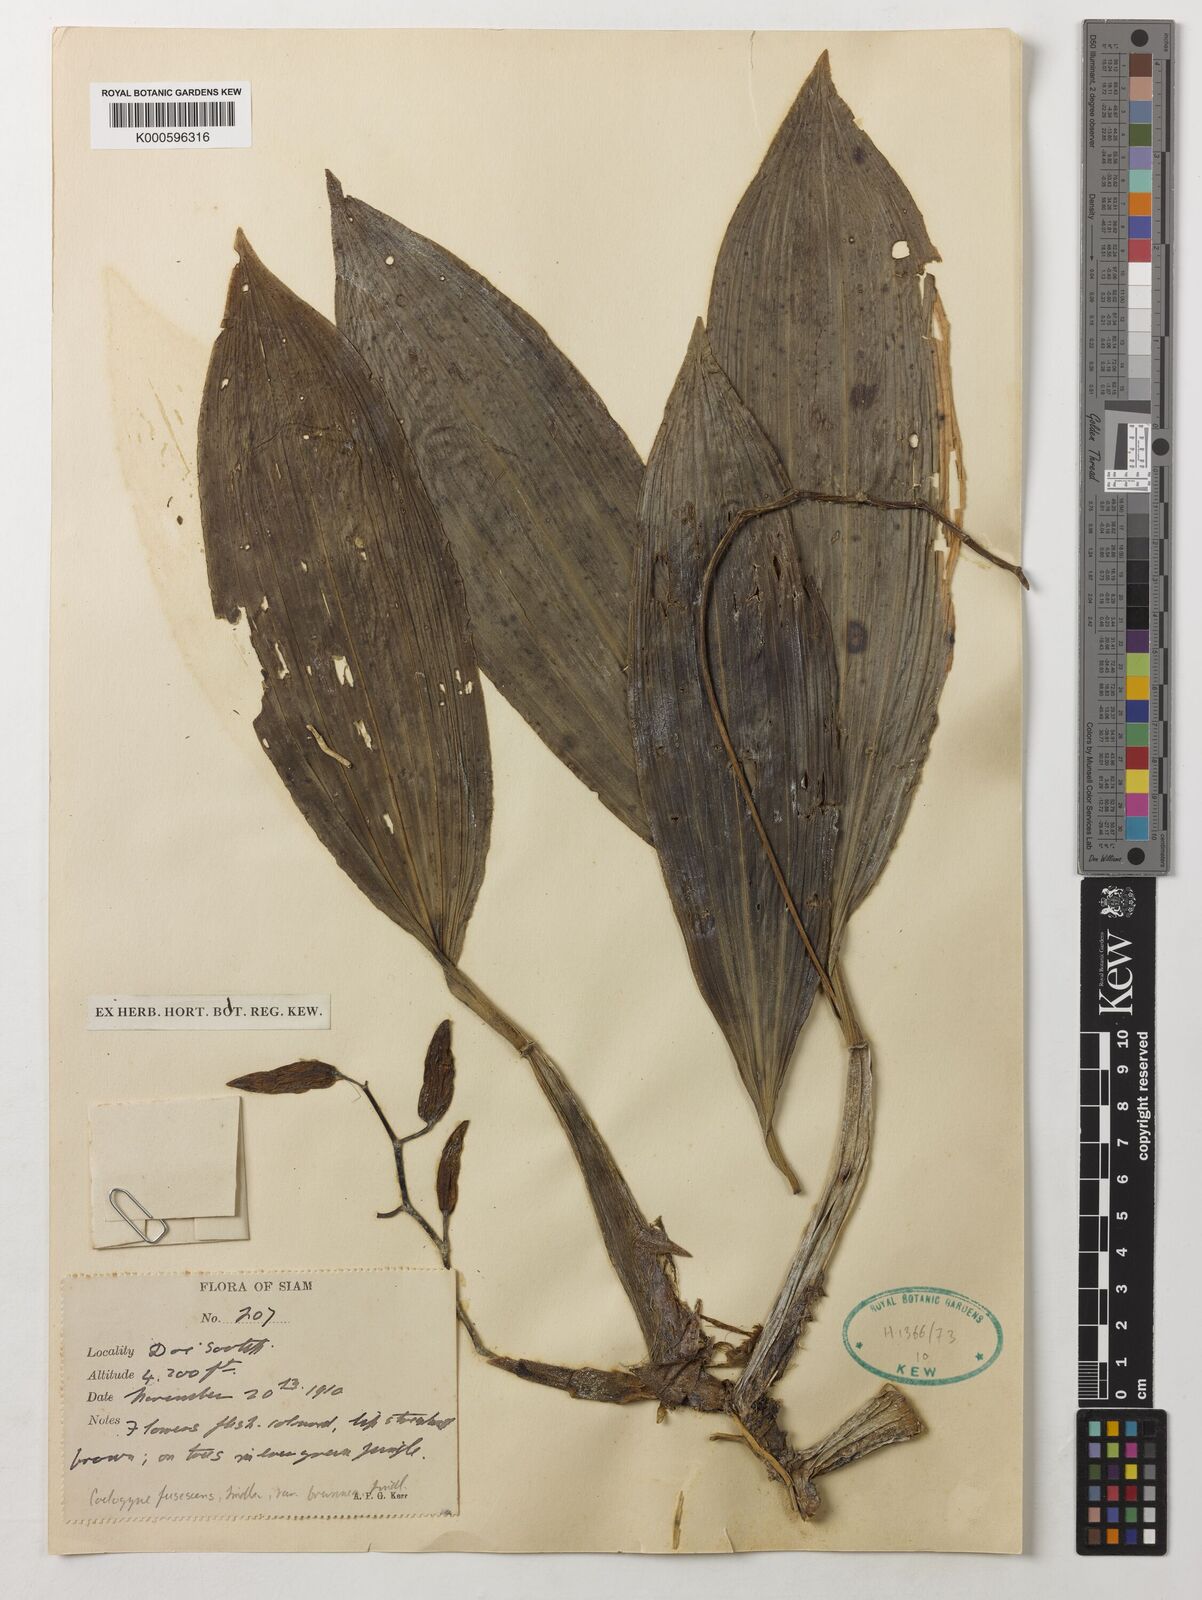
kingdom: Plantae
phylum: Tracheophyta
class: Liliopsida
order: Asparagales
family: Orchidaceae
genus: Coelogyne
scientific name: Coelogyne fuscescens
